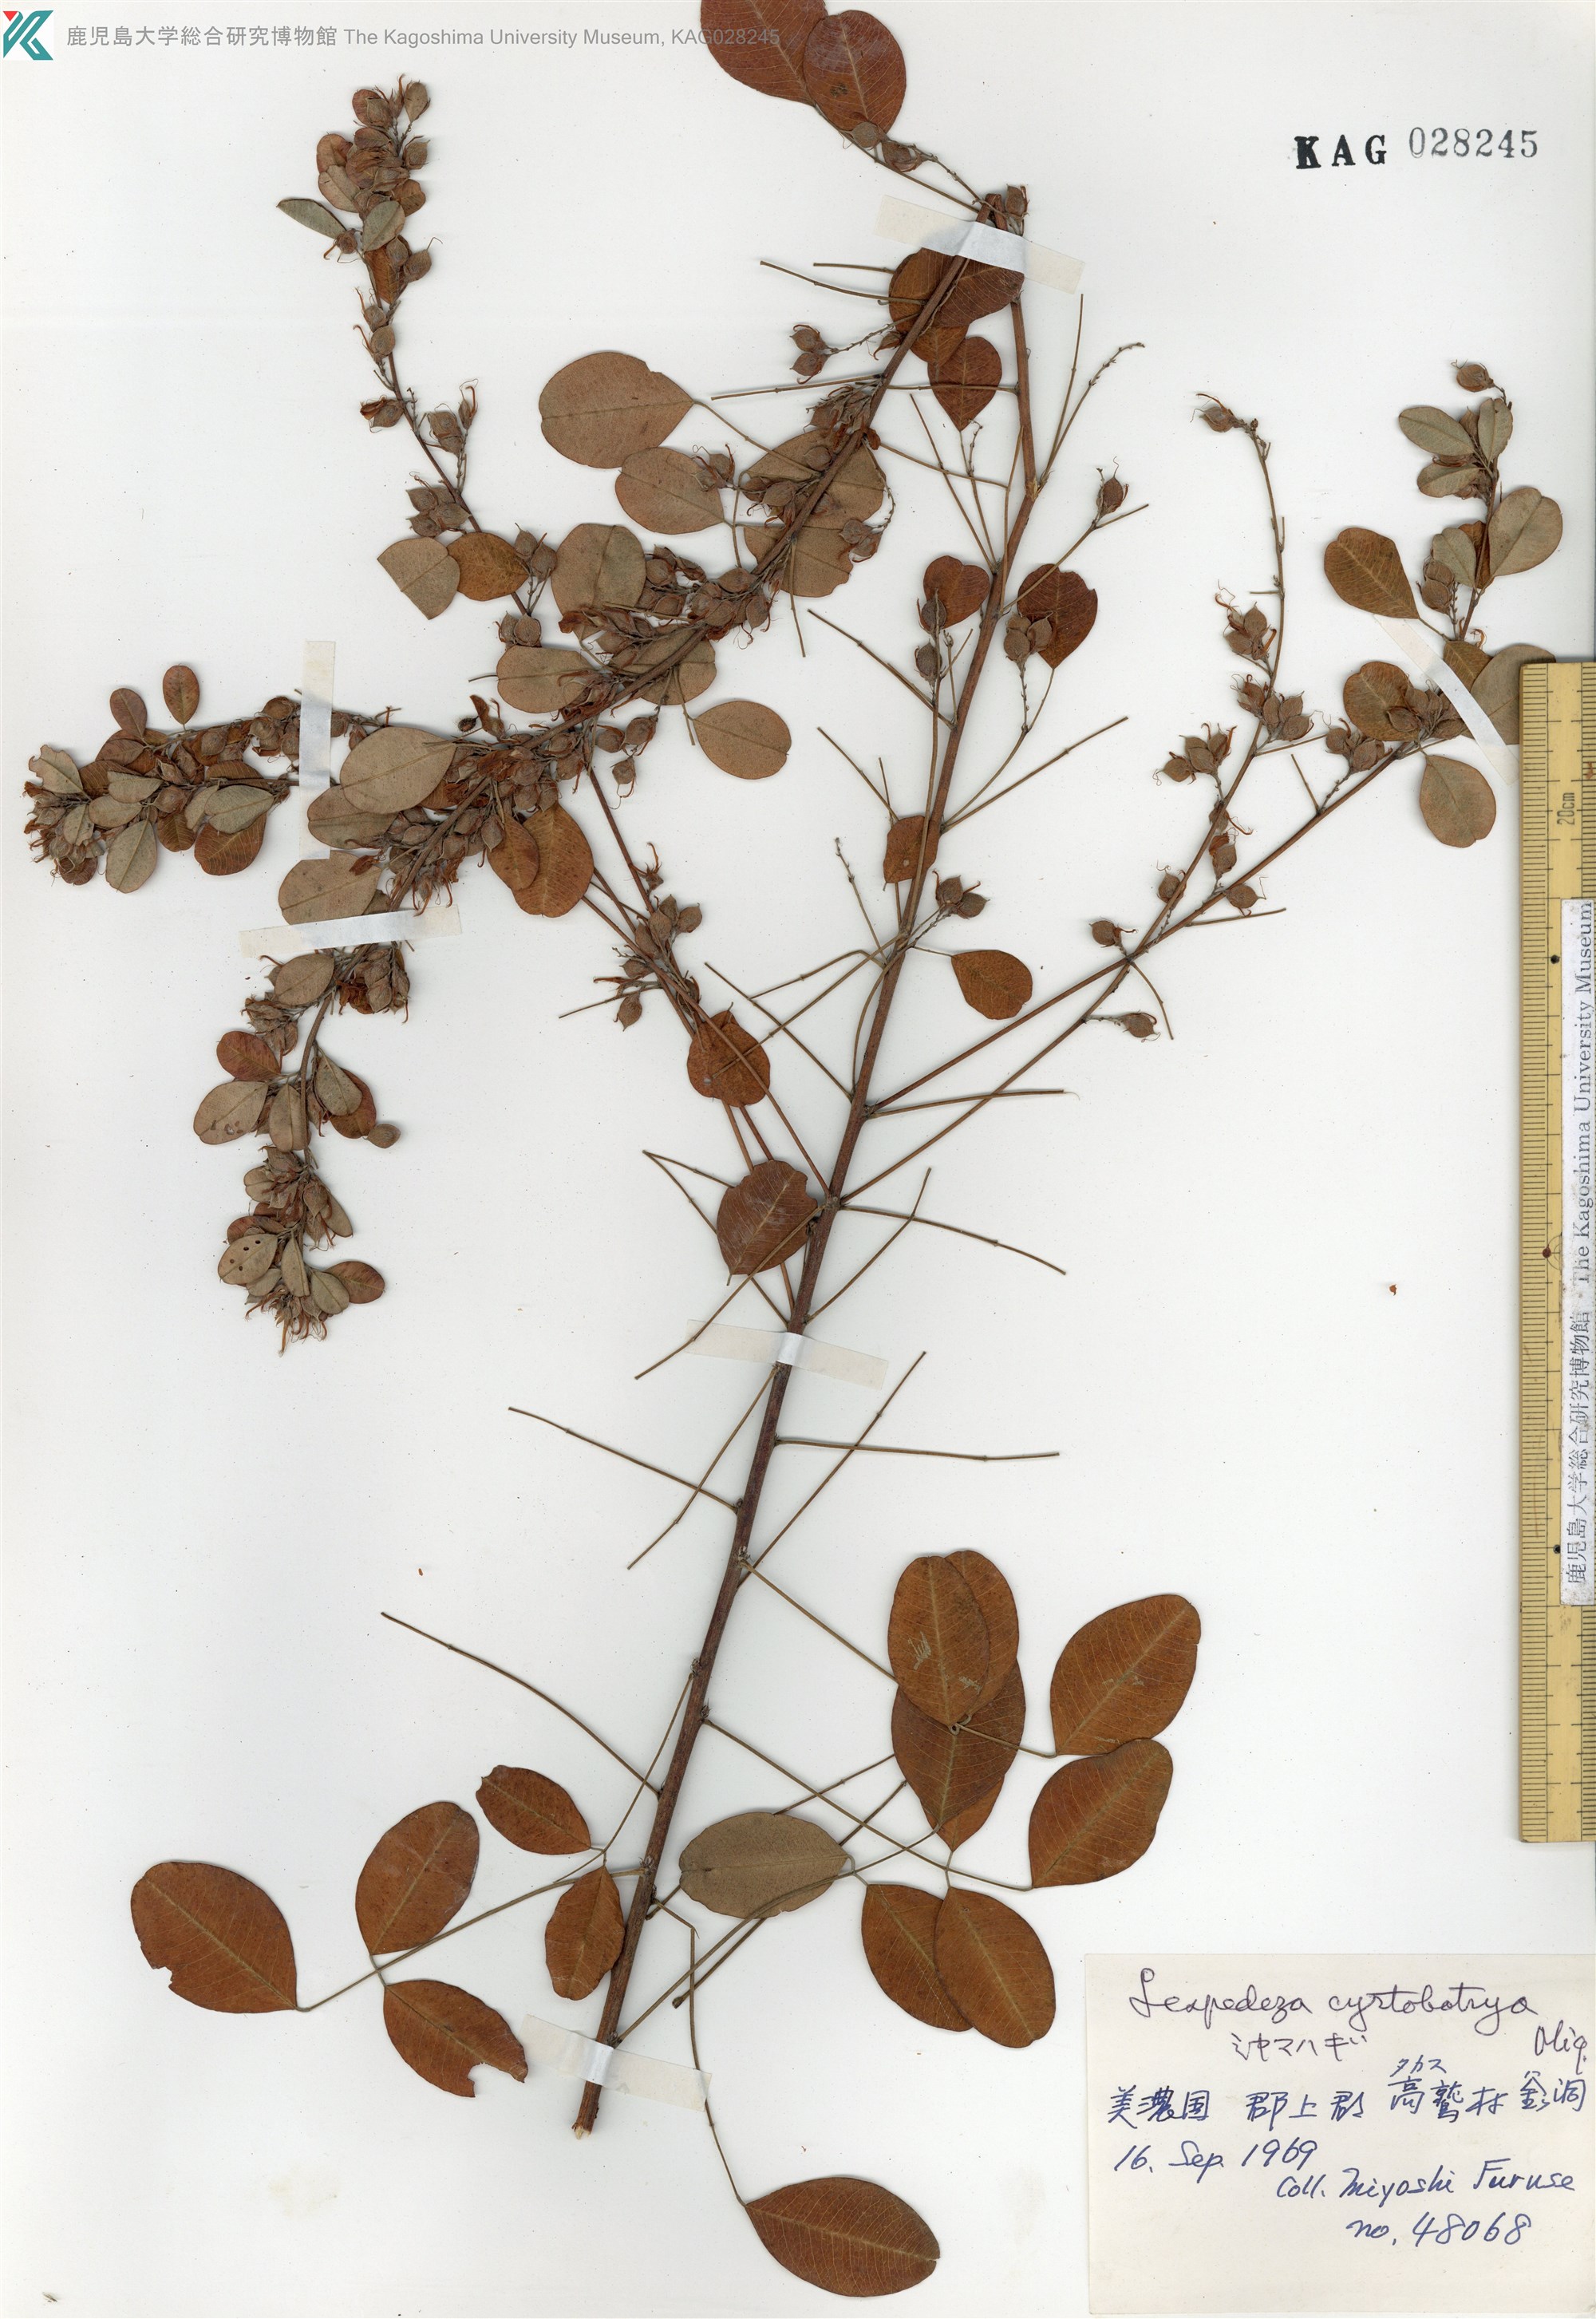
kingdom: Plantae
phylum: Tracheophyta
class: Magnoliopsida
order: Fabales
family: Fabaceae
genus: Lespedeza
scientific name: Lespedeza cyrtobotrya
